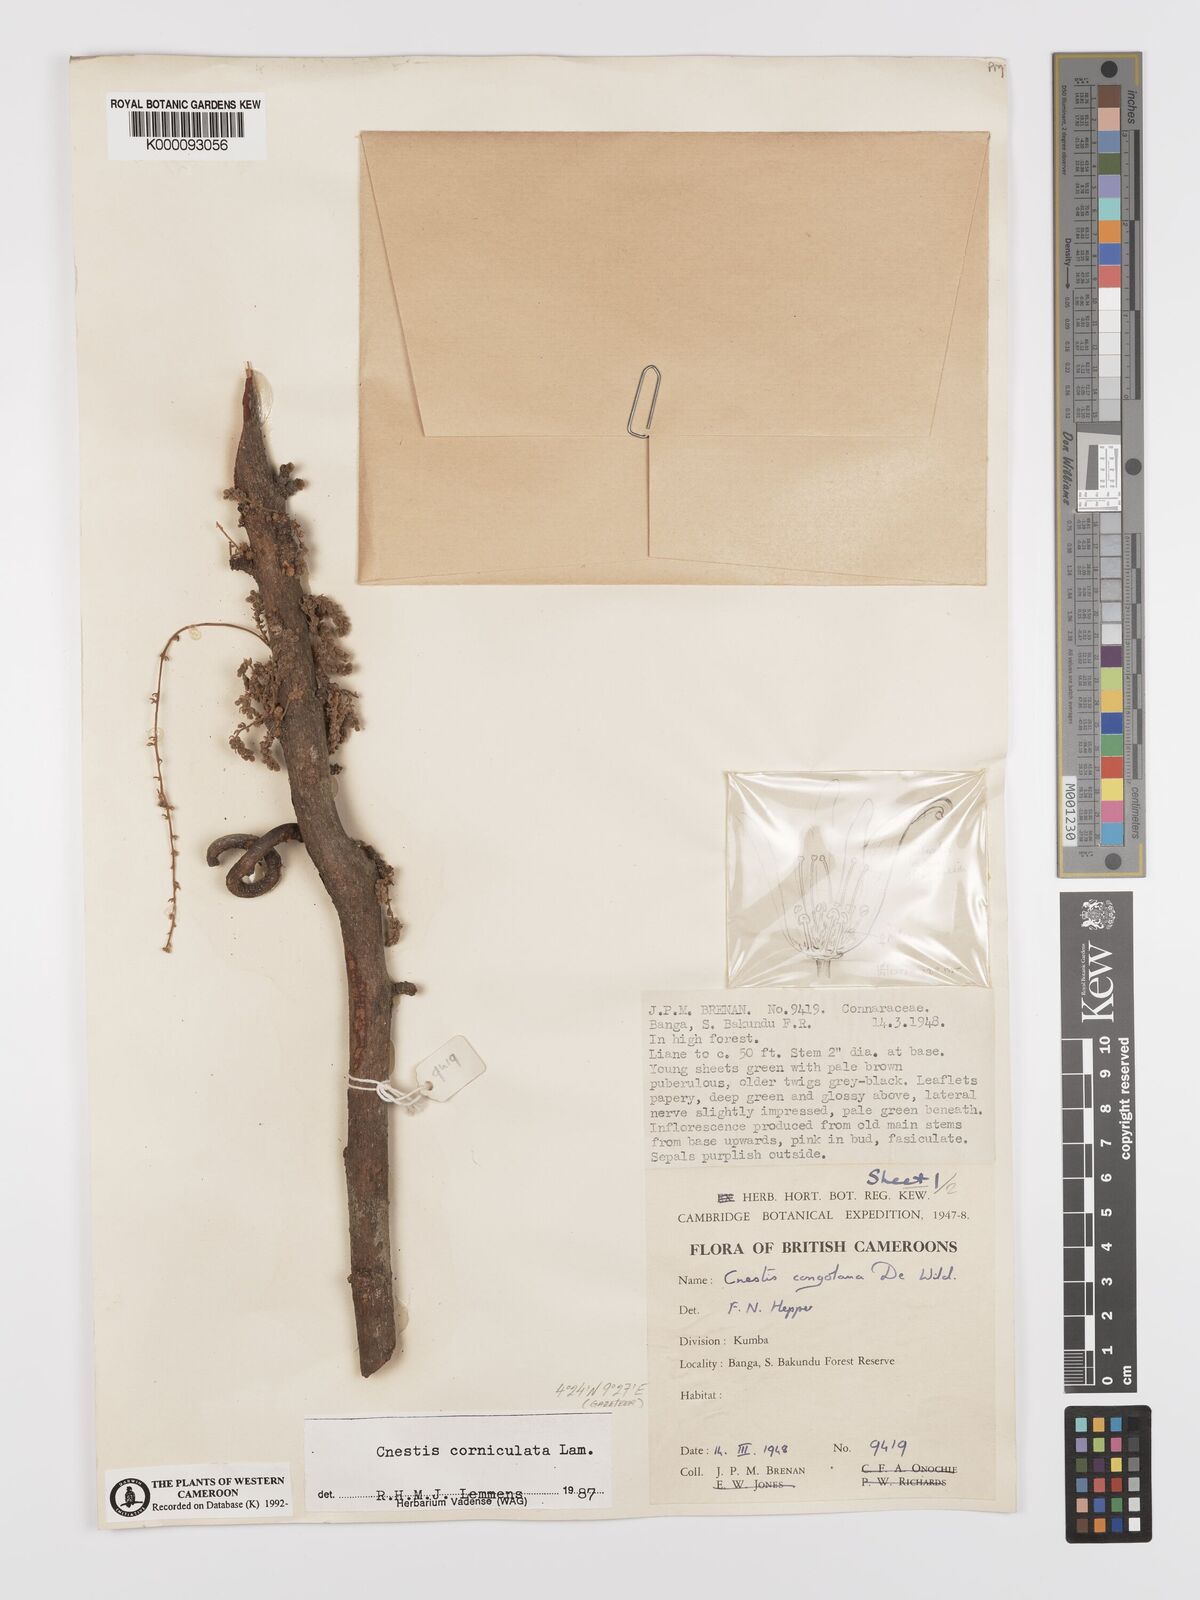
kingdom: Plantae
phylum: Tracheophyta
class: Magnoliopsida
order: Oxalidales
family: Connaraceae
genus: Cnestis
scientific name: Cnestis corniculata
